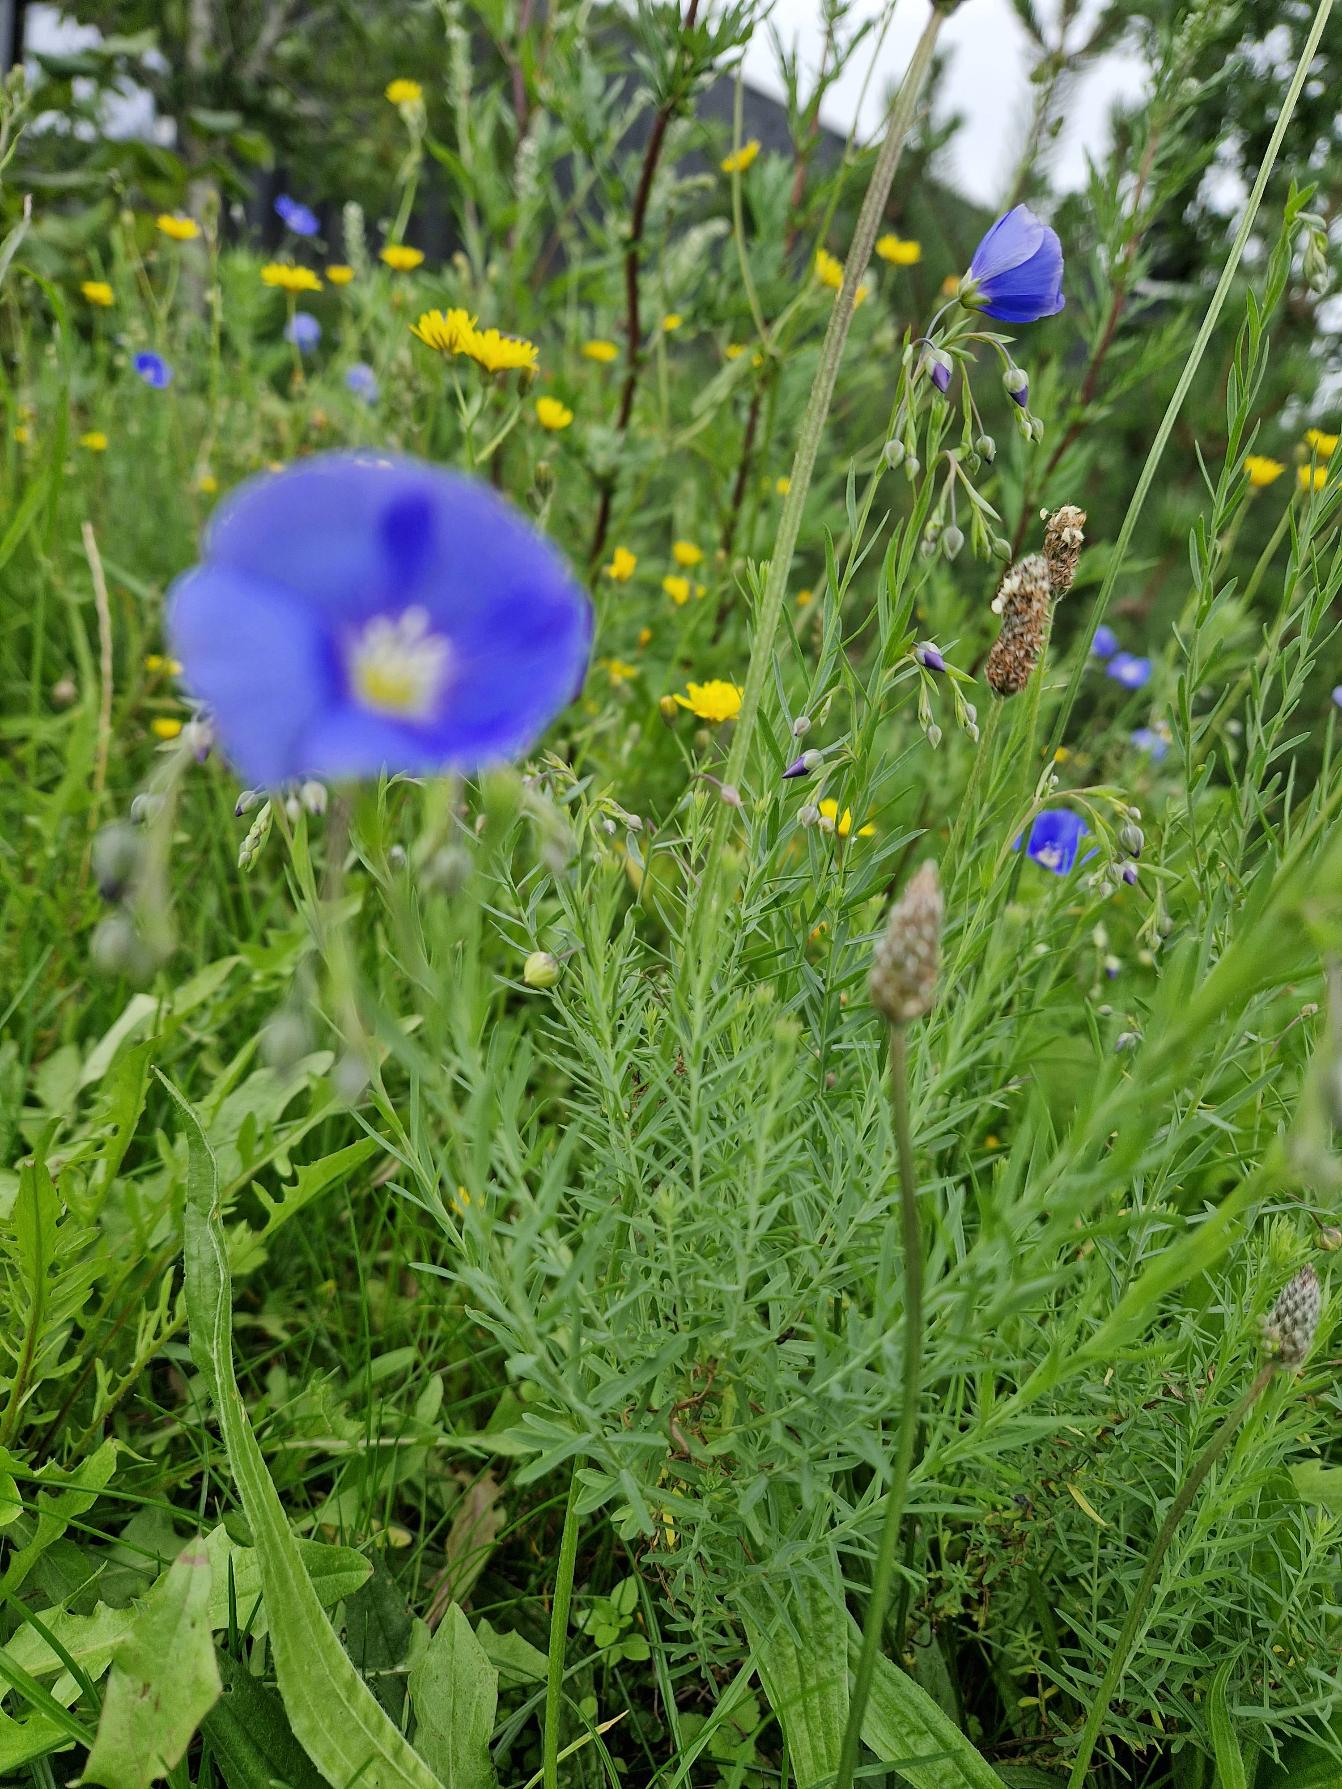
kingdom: Plantae
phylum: Tracheophyta
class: Magnoliopsida
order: Malpighiales
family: Linaceae
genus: Linum
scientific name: Linum austriacum
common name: Østrigsk hør
